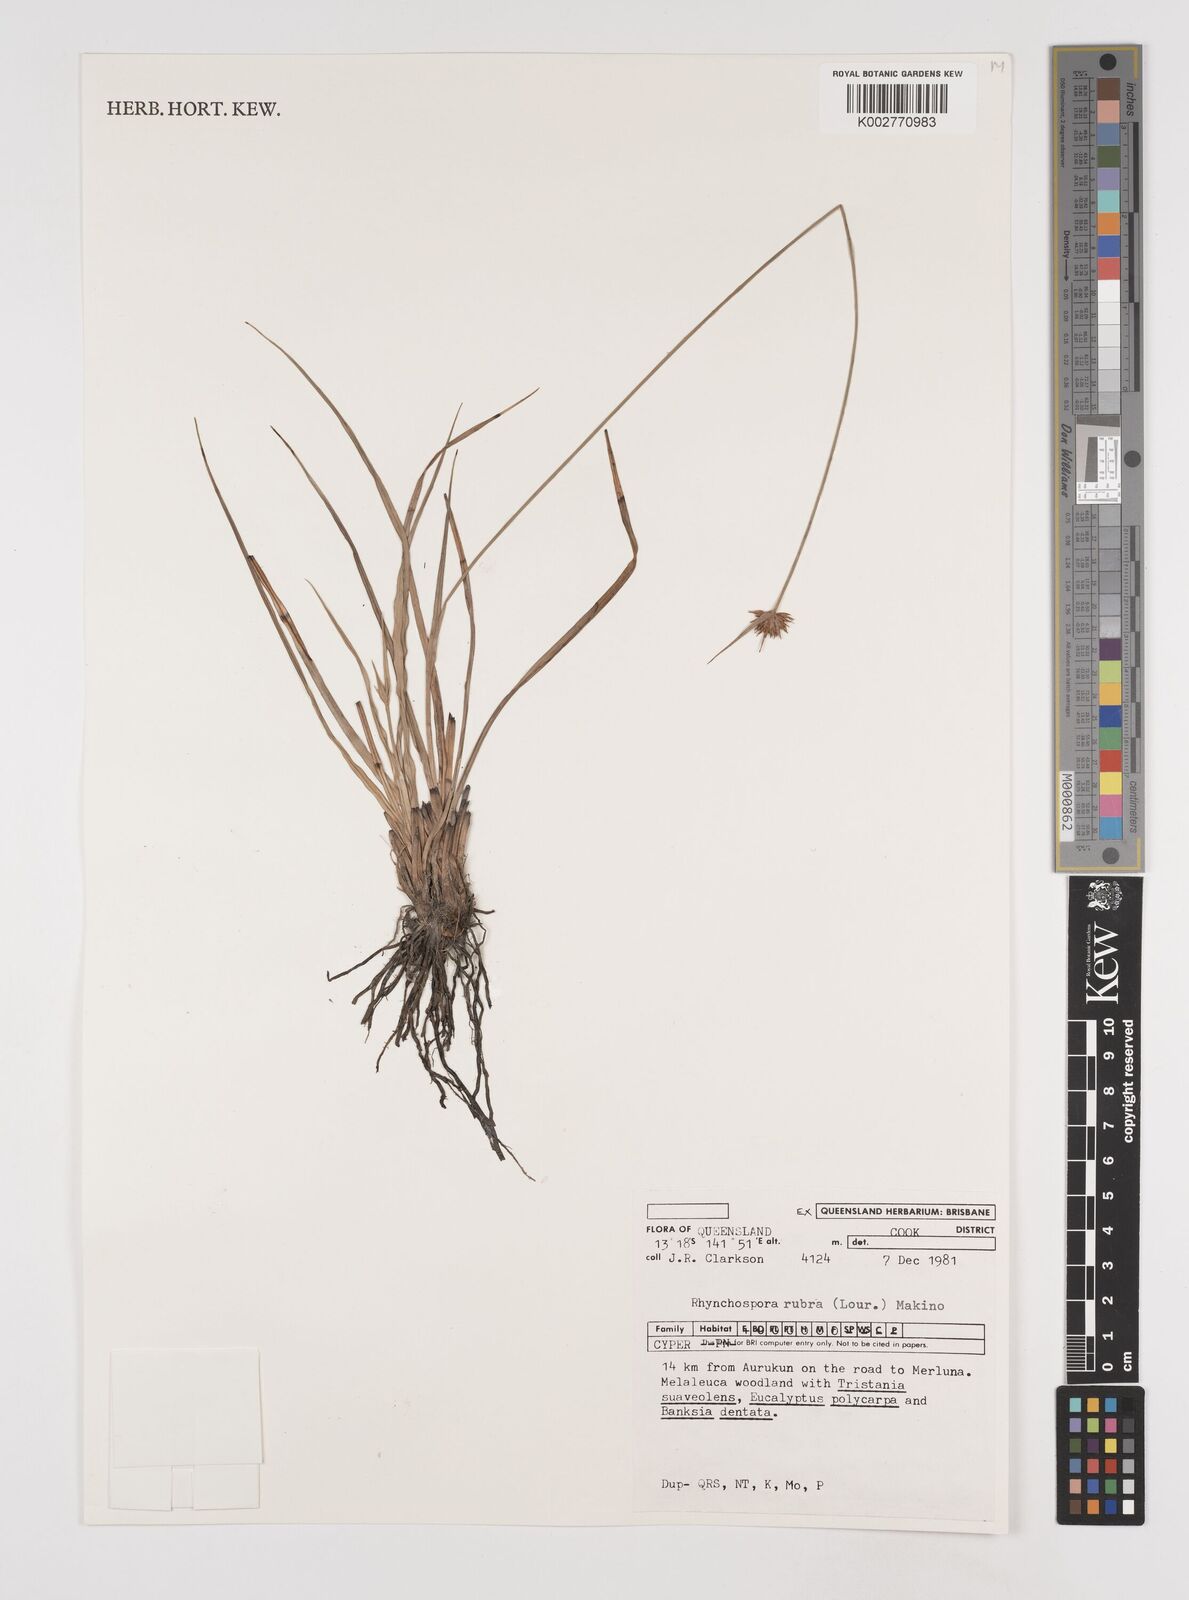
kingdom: Plantae
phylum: Tracheophyta
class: Liliopsida
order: Poales
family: Cyperaceae
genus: Rhynchospora
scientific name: Rhynchospora rubra
